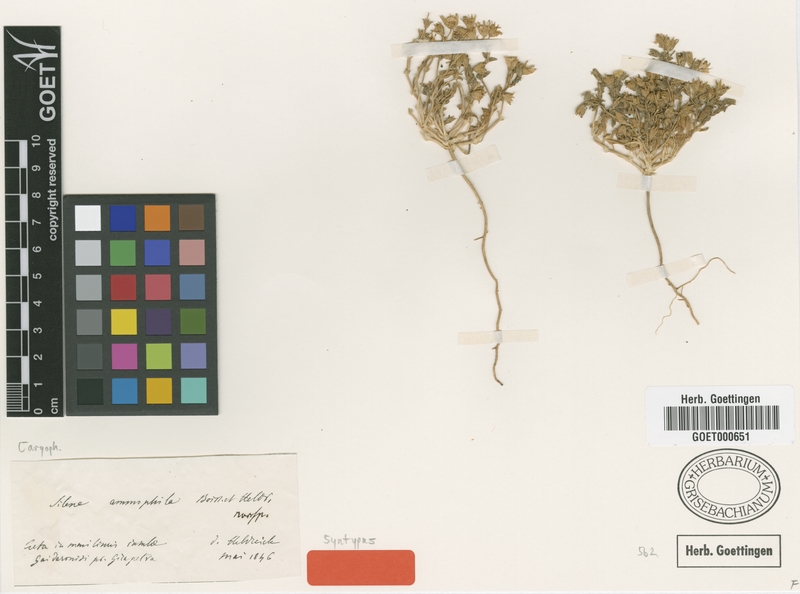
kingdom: Plantae
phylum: Tracheophyta
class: Magnoliopsida
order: Caryophyllales
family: Caryophyllaceae
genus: Silene
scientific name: Silene ammophila
